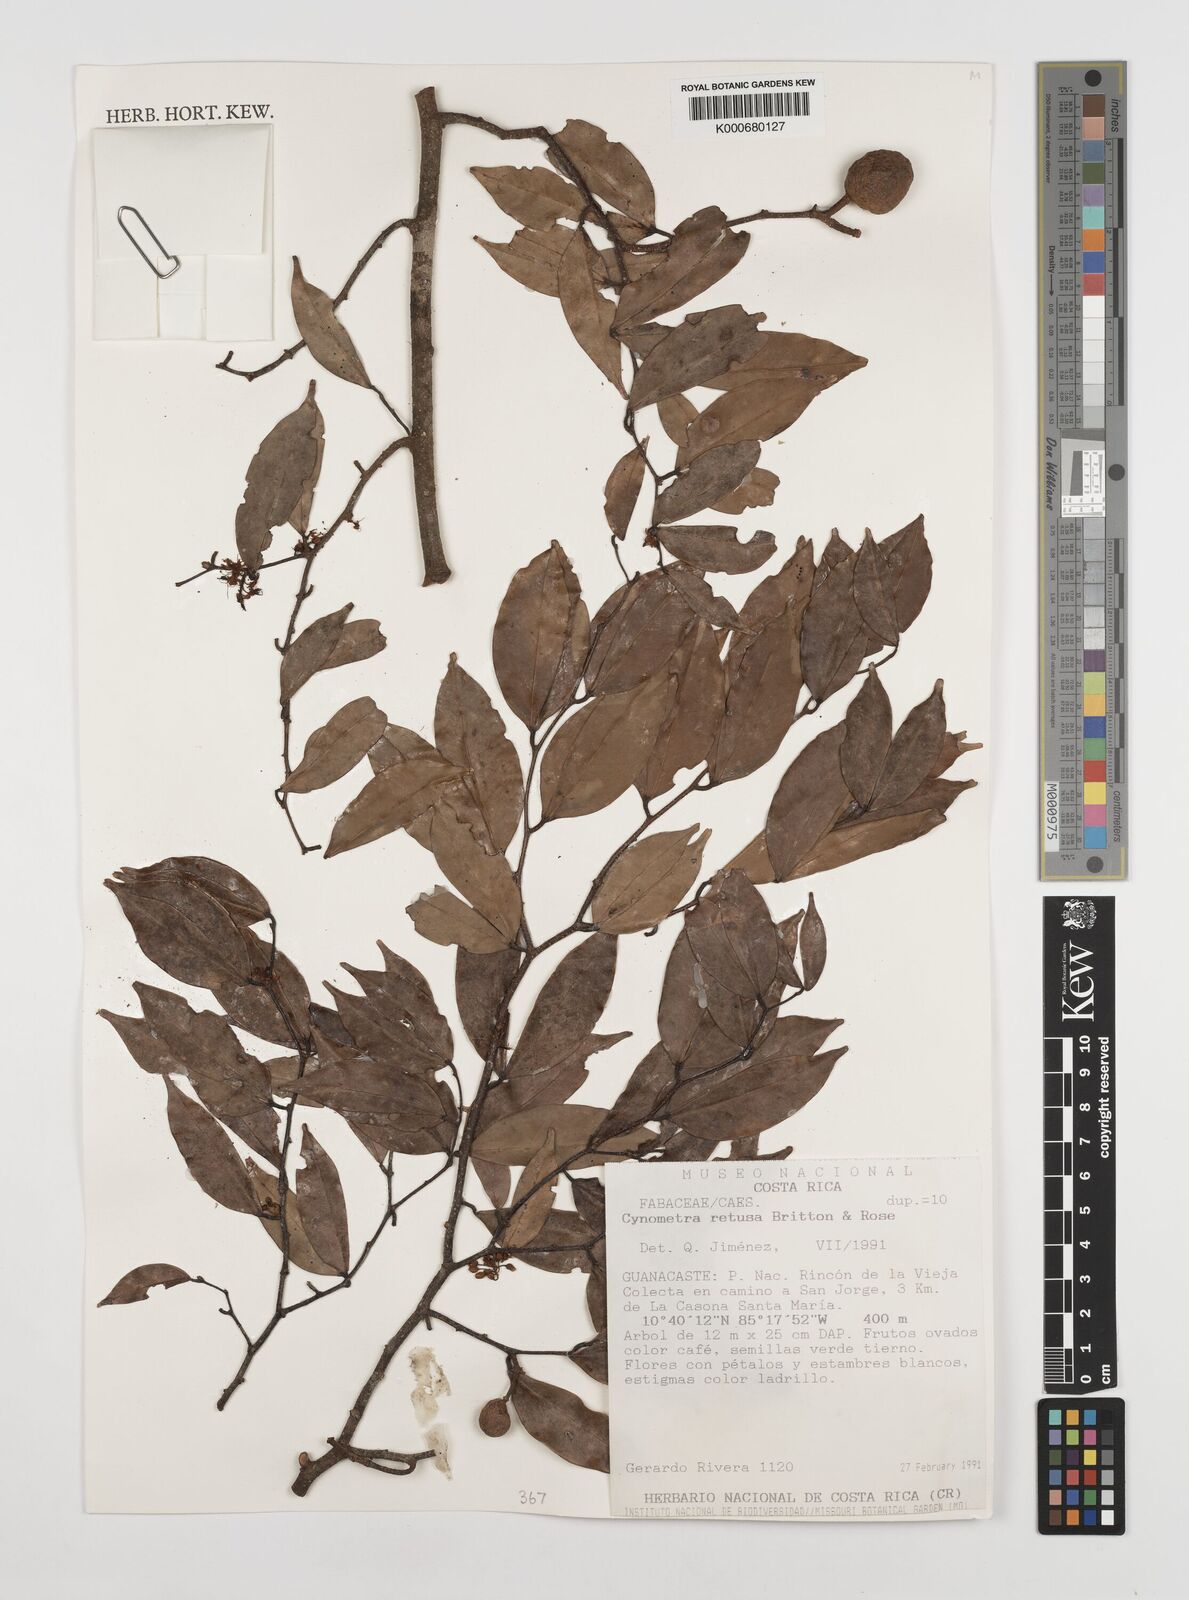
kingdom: Plantae
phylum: Tracheophyta
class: Magnoliopsida
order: Fabales
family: Fabaceae
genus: Cynometra
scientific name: Cynometra retusa
